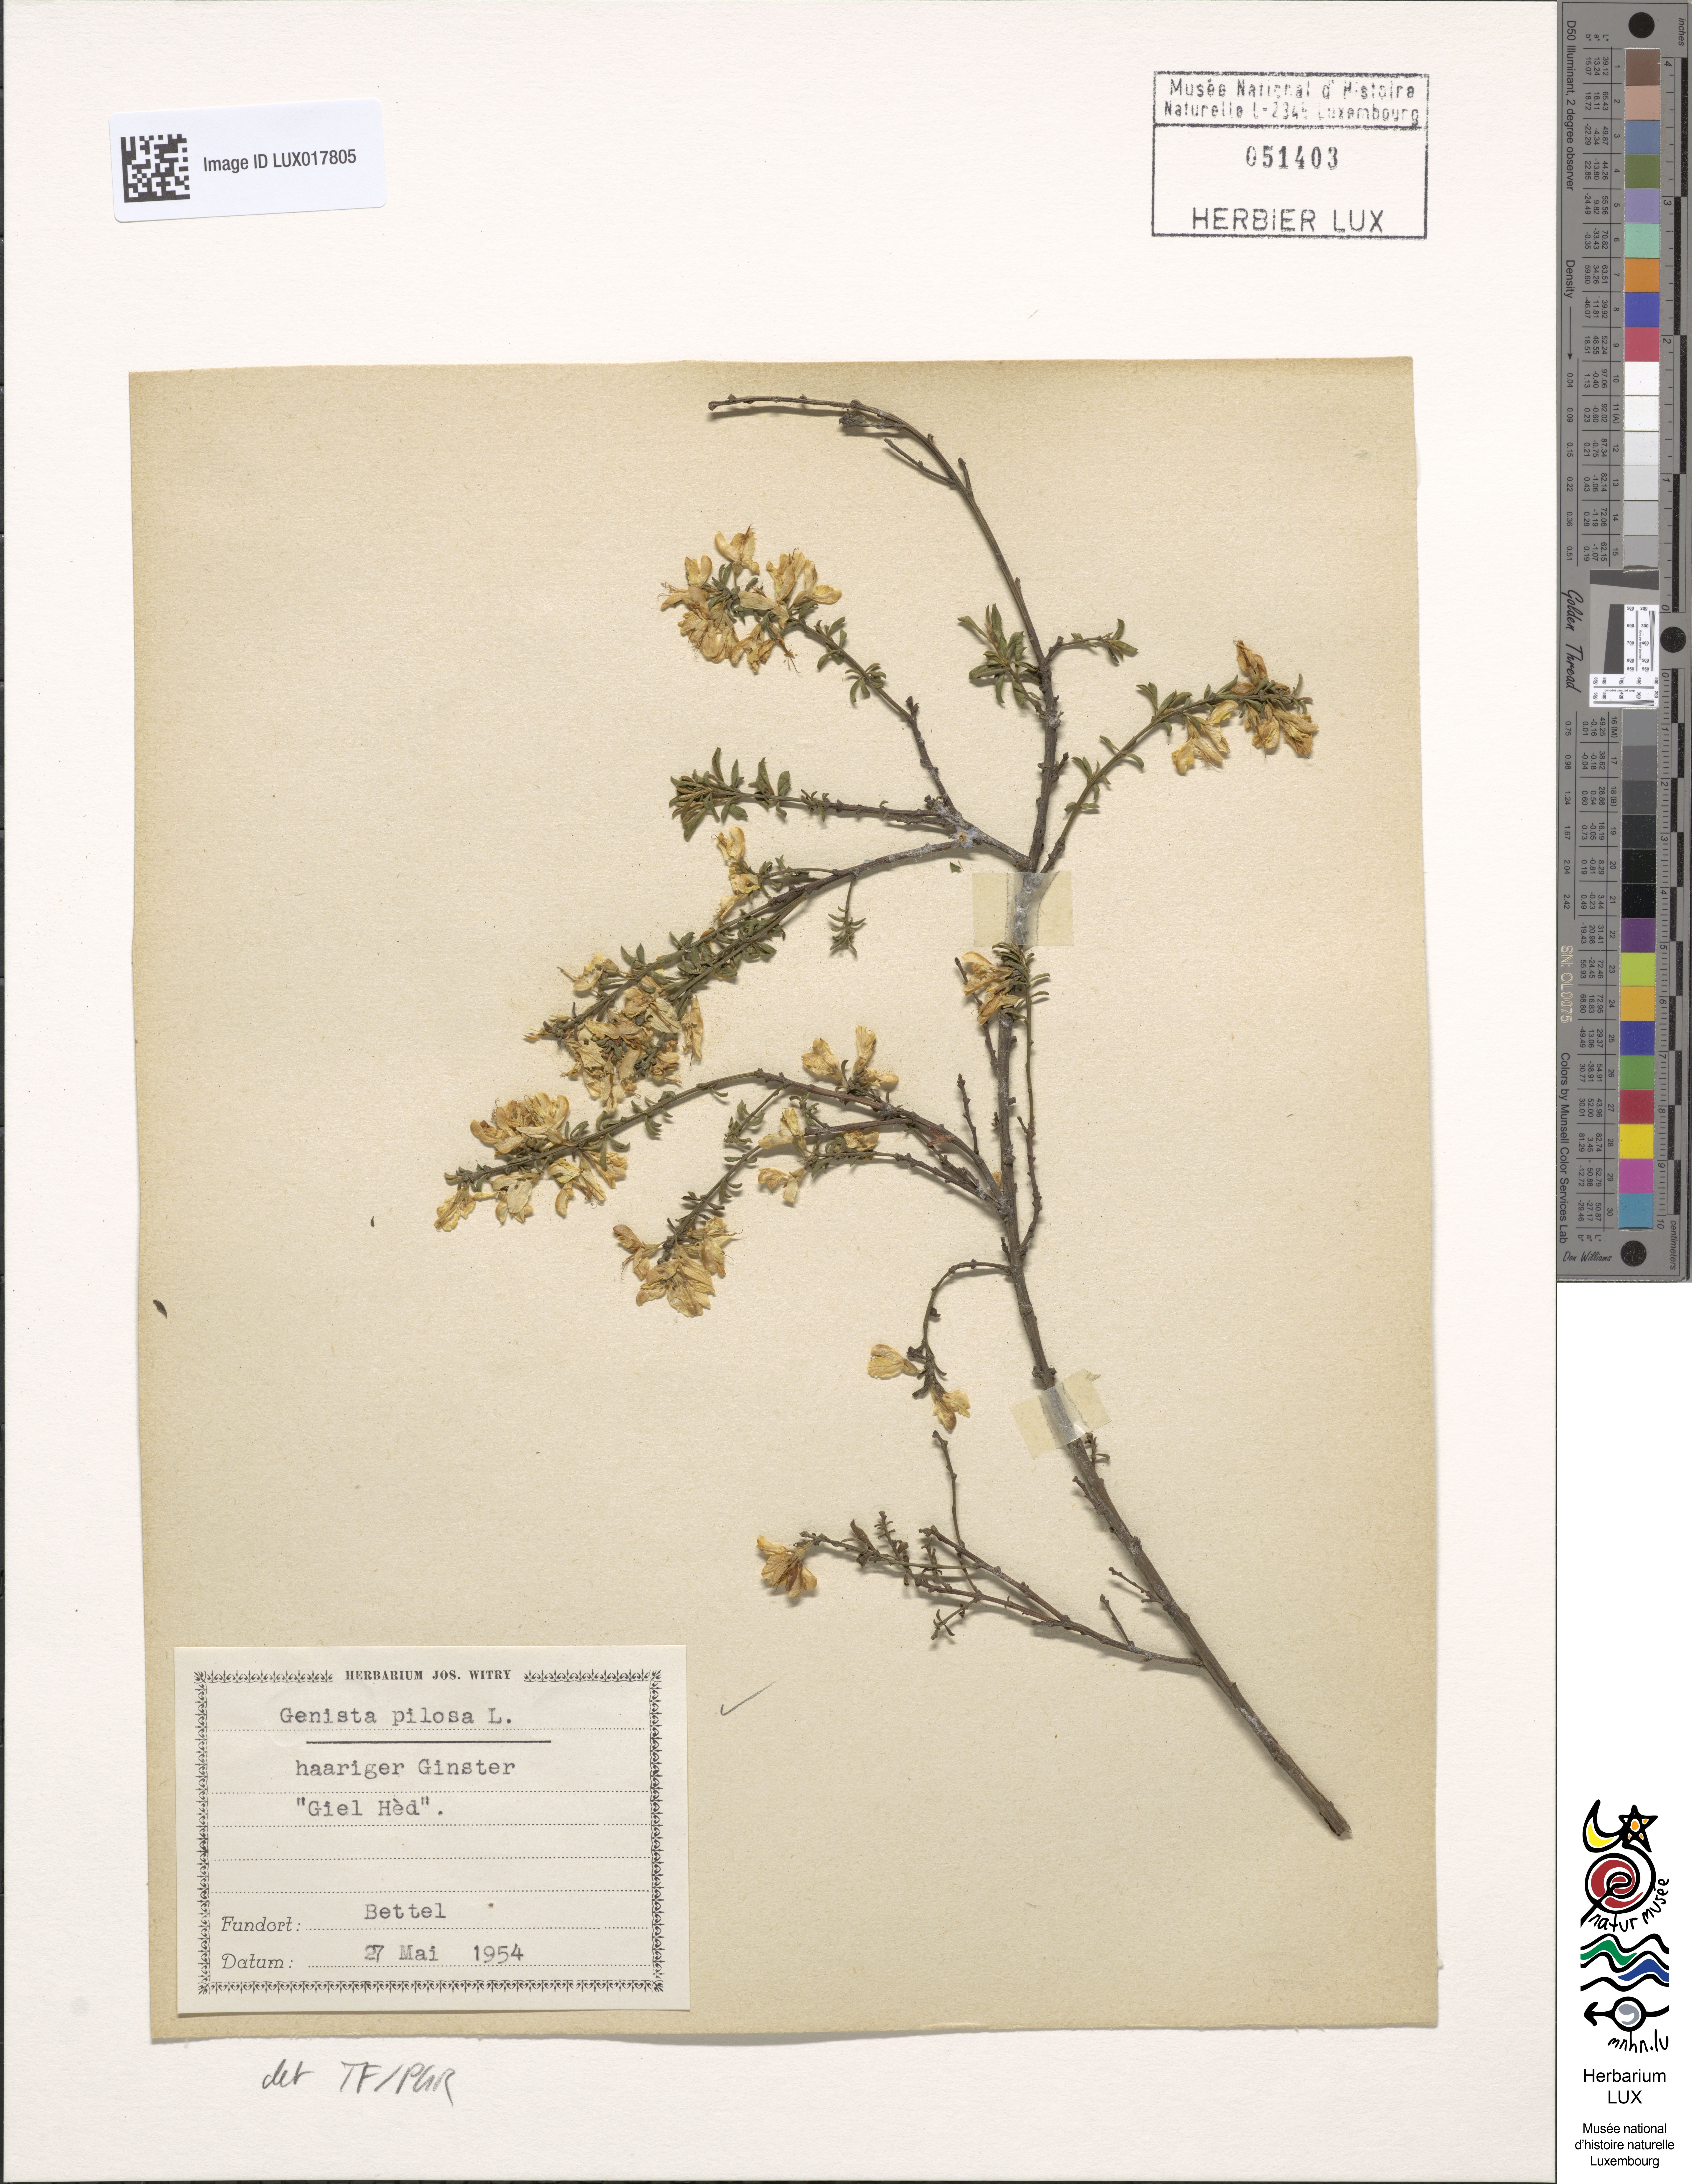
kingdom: Plantae
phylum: Tracheophyta
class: Magnoliopsida
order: Fabales
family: Fabaceae
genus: Genista
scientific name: Genista pilosa
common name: Hairy greenweed
